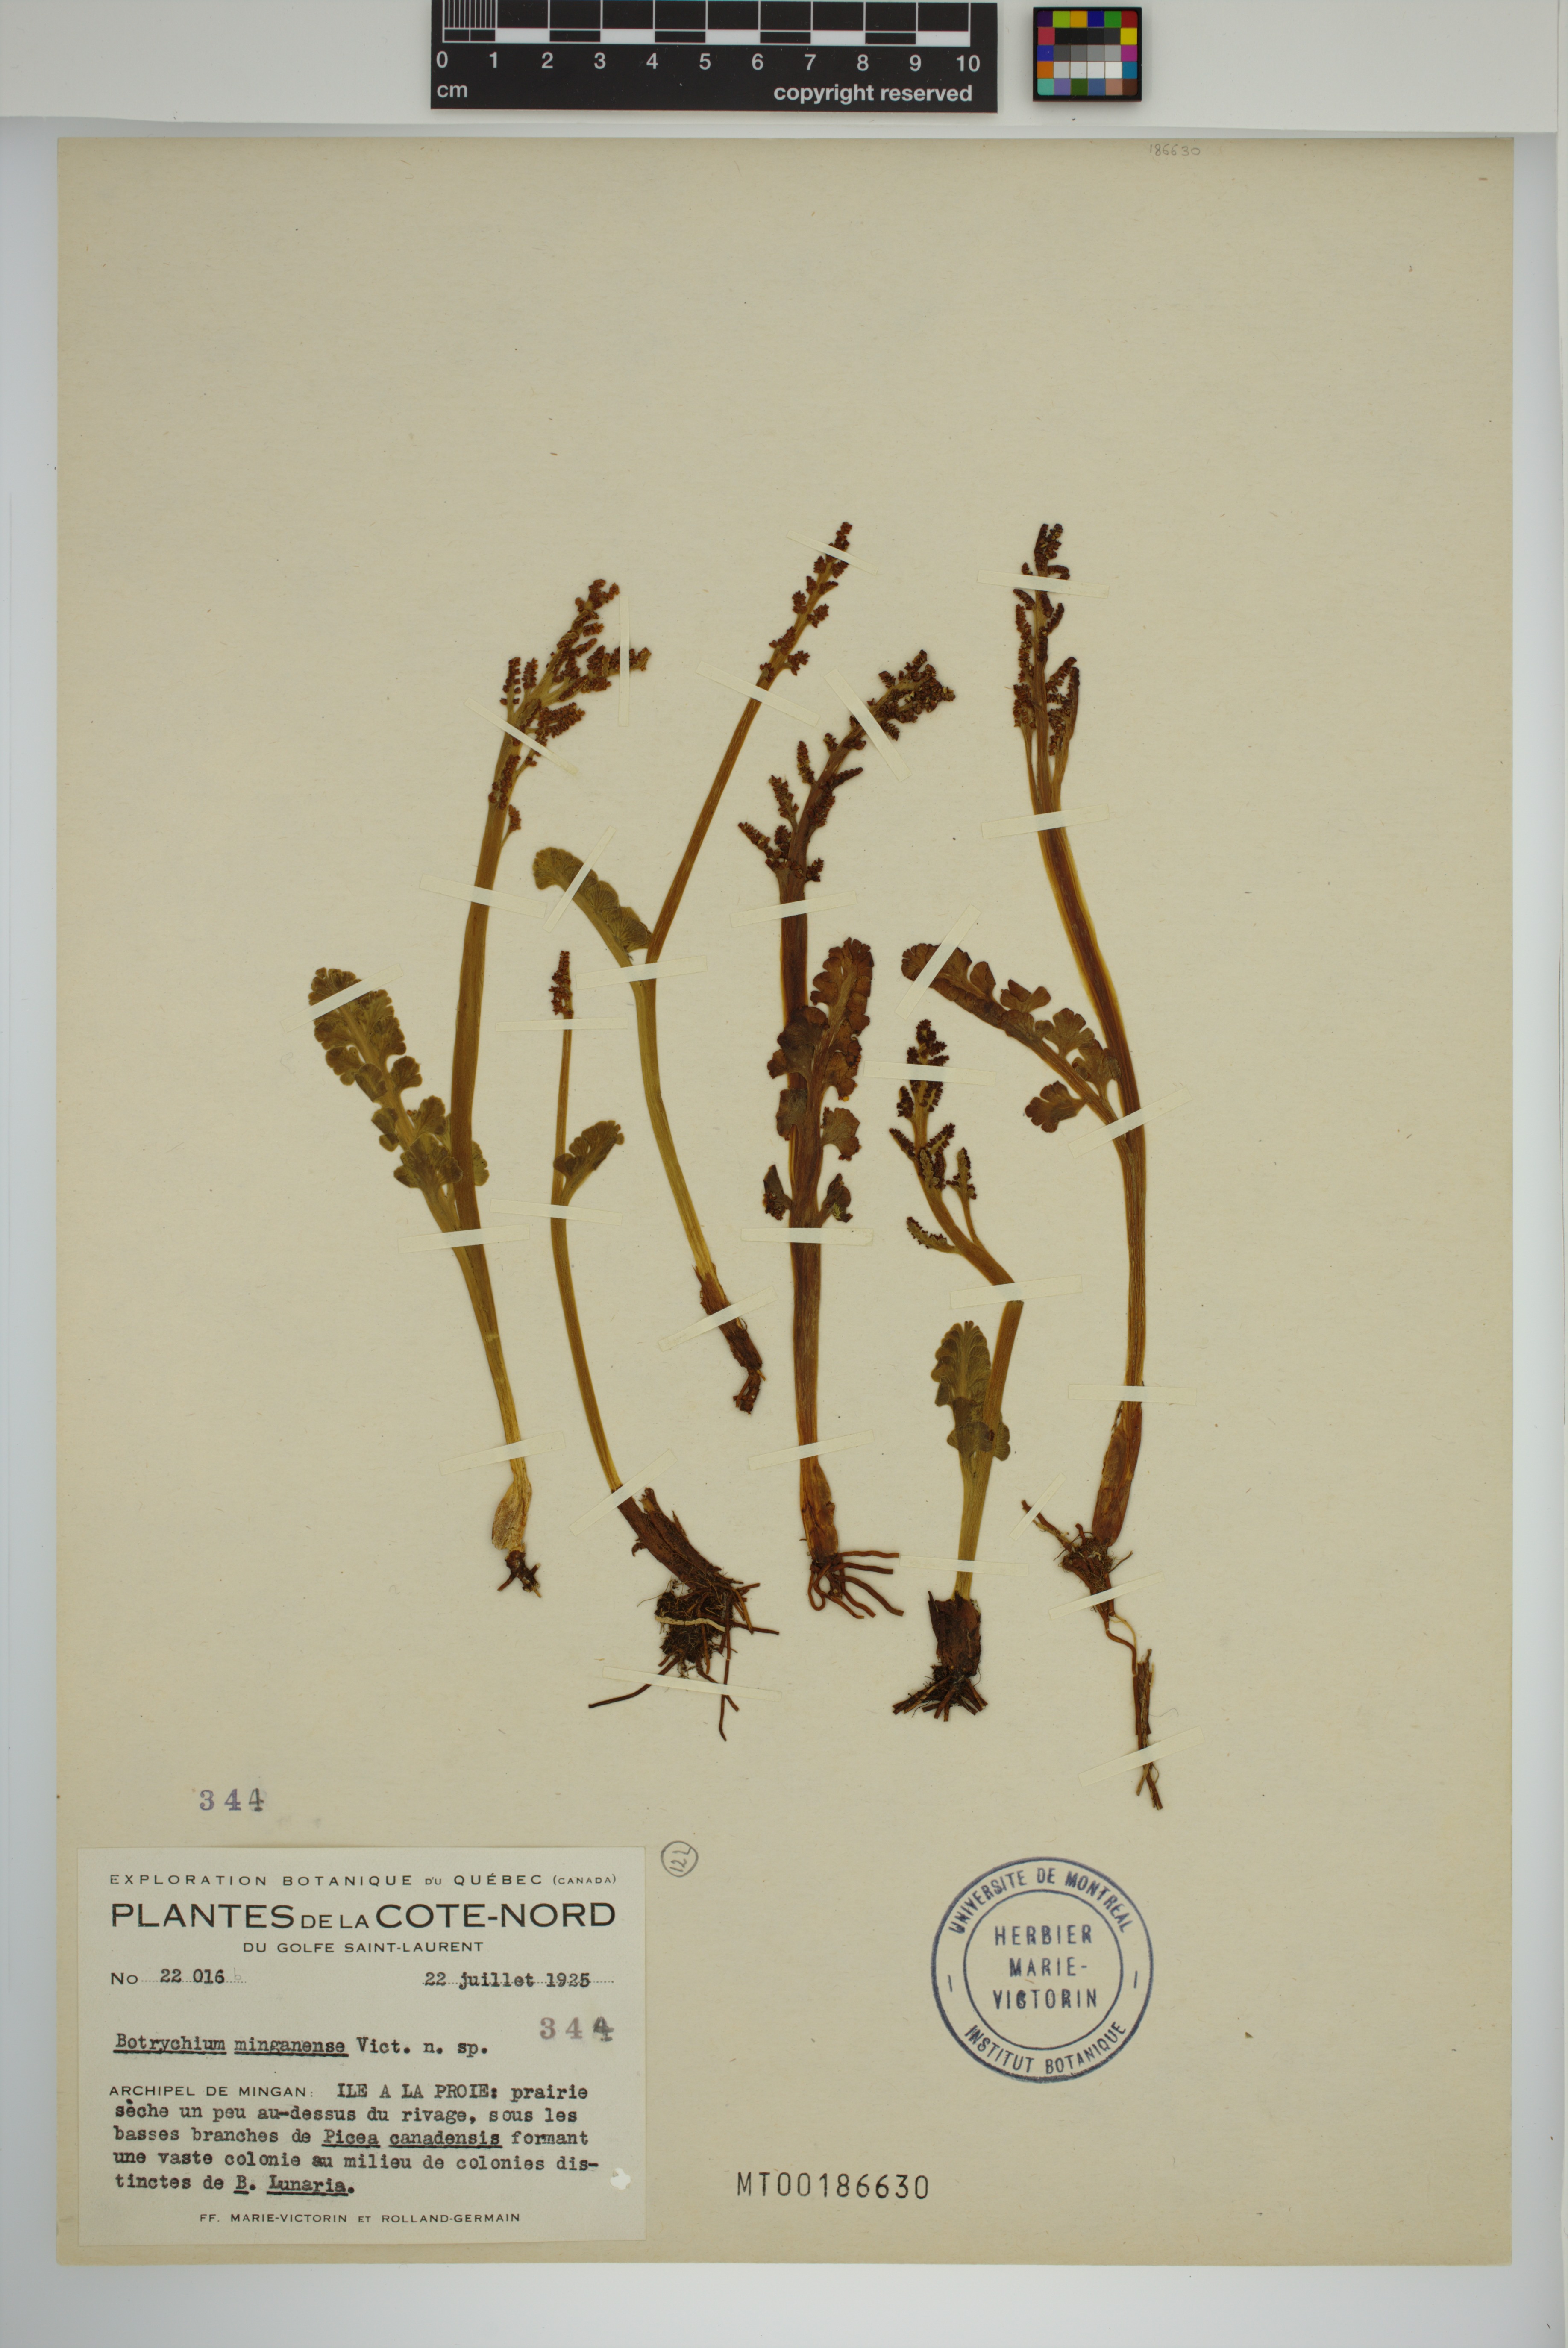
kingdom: Plantae
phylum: Tracheophyta
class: Polypodiopsida
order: Ophioglossales
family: Ophioglossaceae
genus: Botrychium
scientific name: Botrychium minganense
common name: Mingan grapefern
